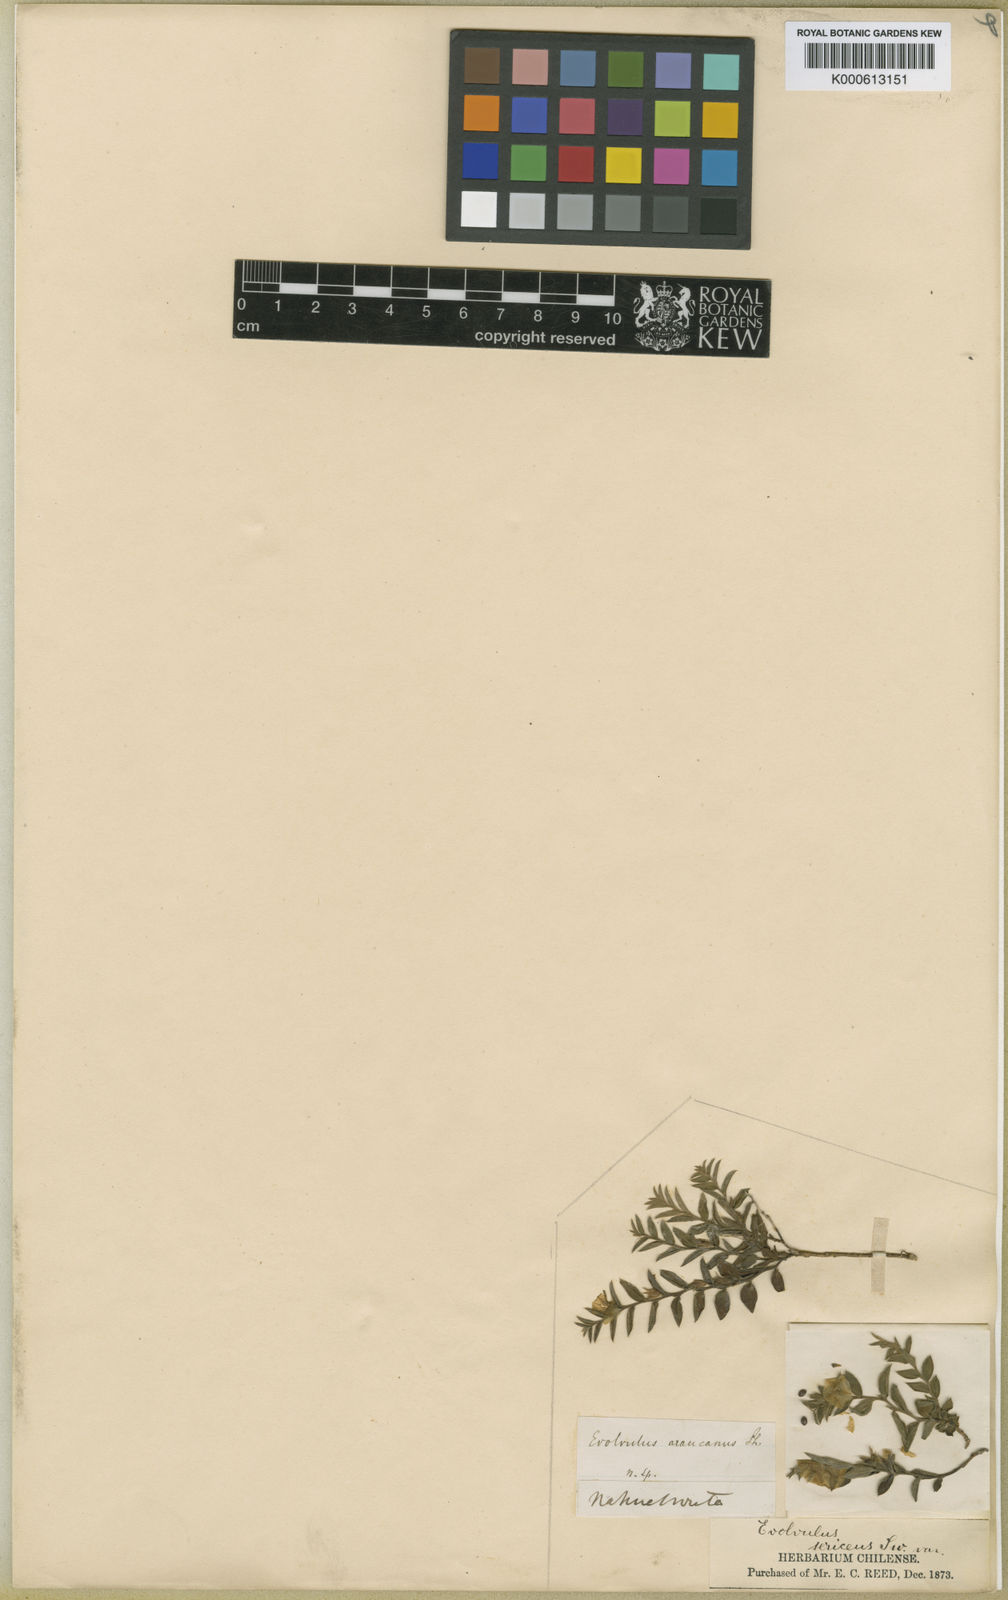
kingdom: Plantae
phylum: Tracheophyta
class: Magnoliopsida
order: Solanales
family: Convolvulaceae
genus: Evolvulus
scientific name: Evolvulus sericeus
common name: Blue dots
